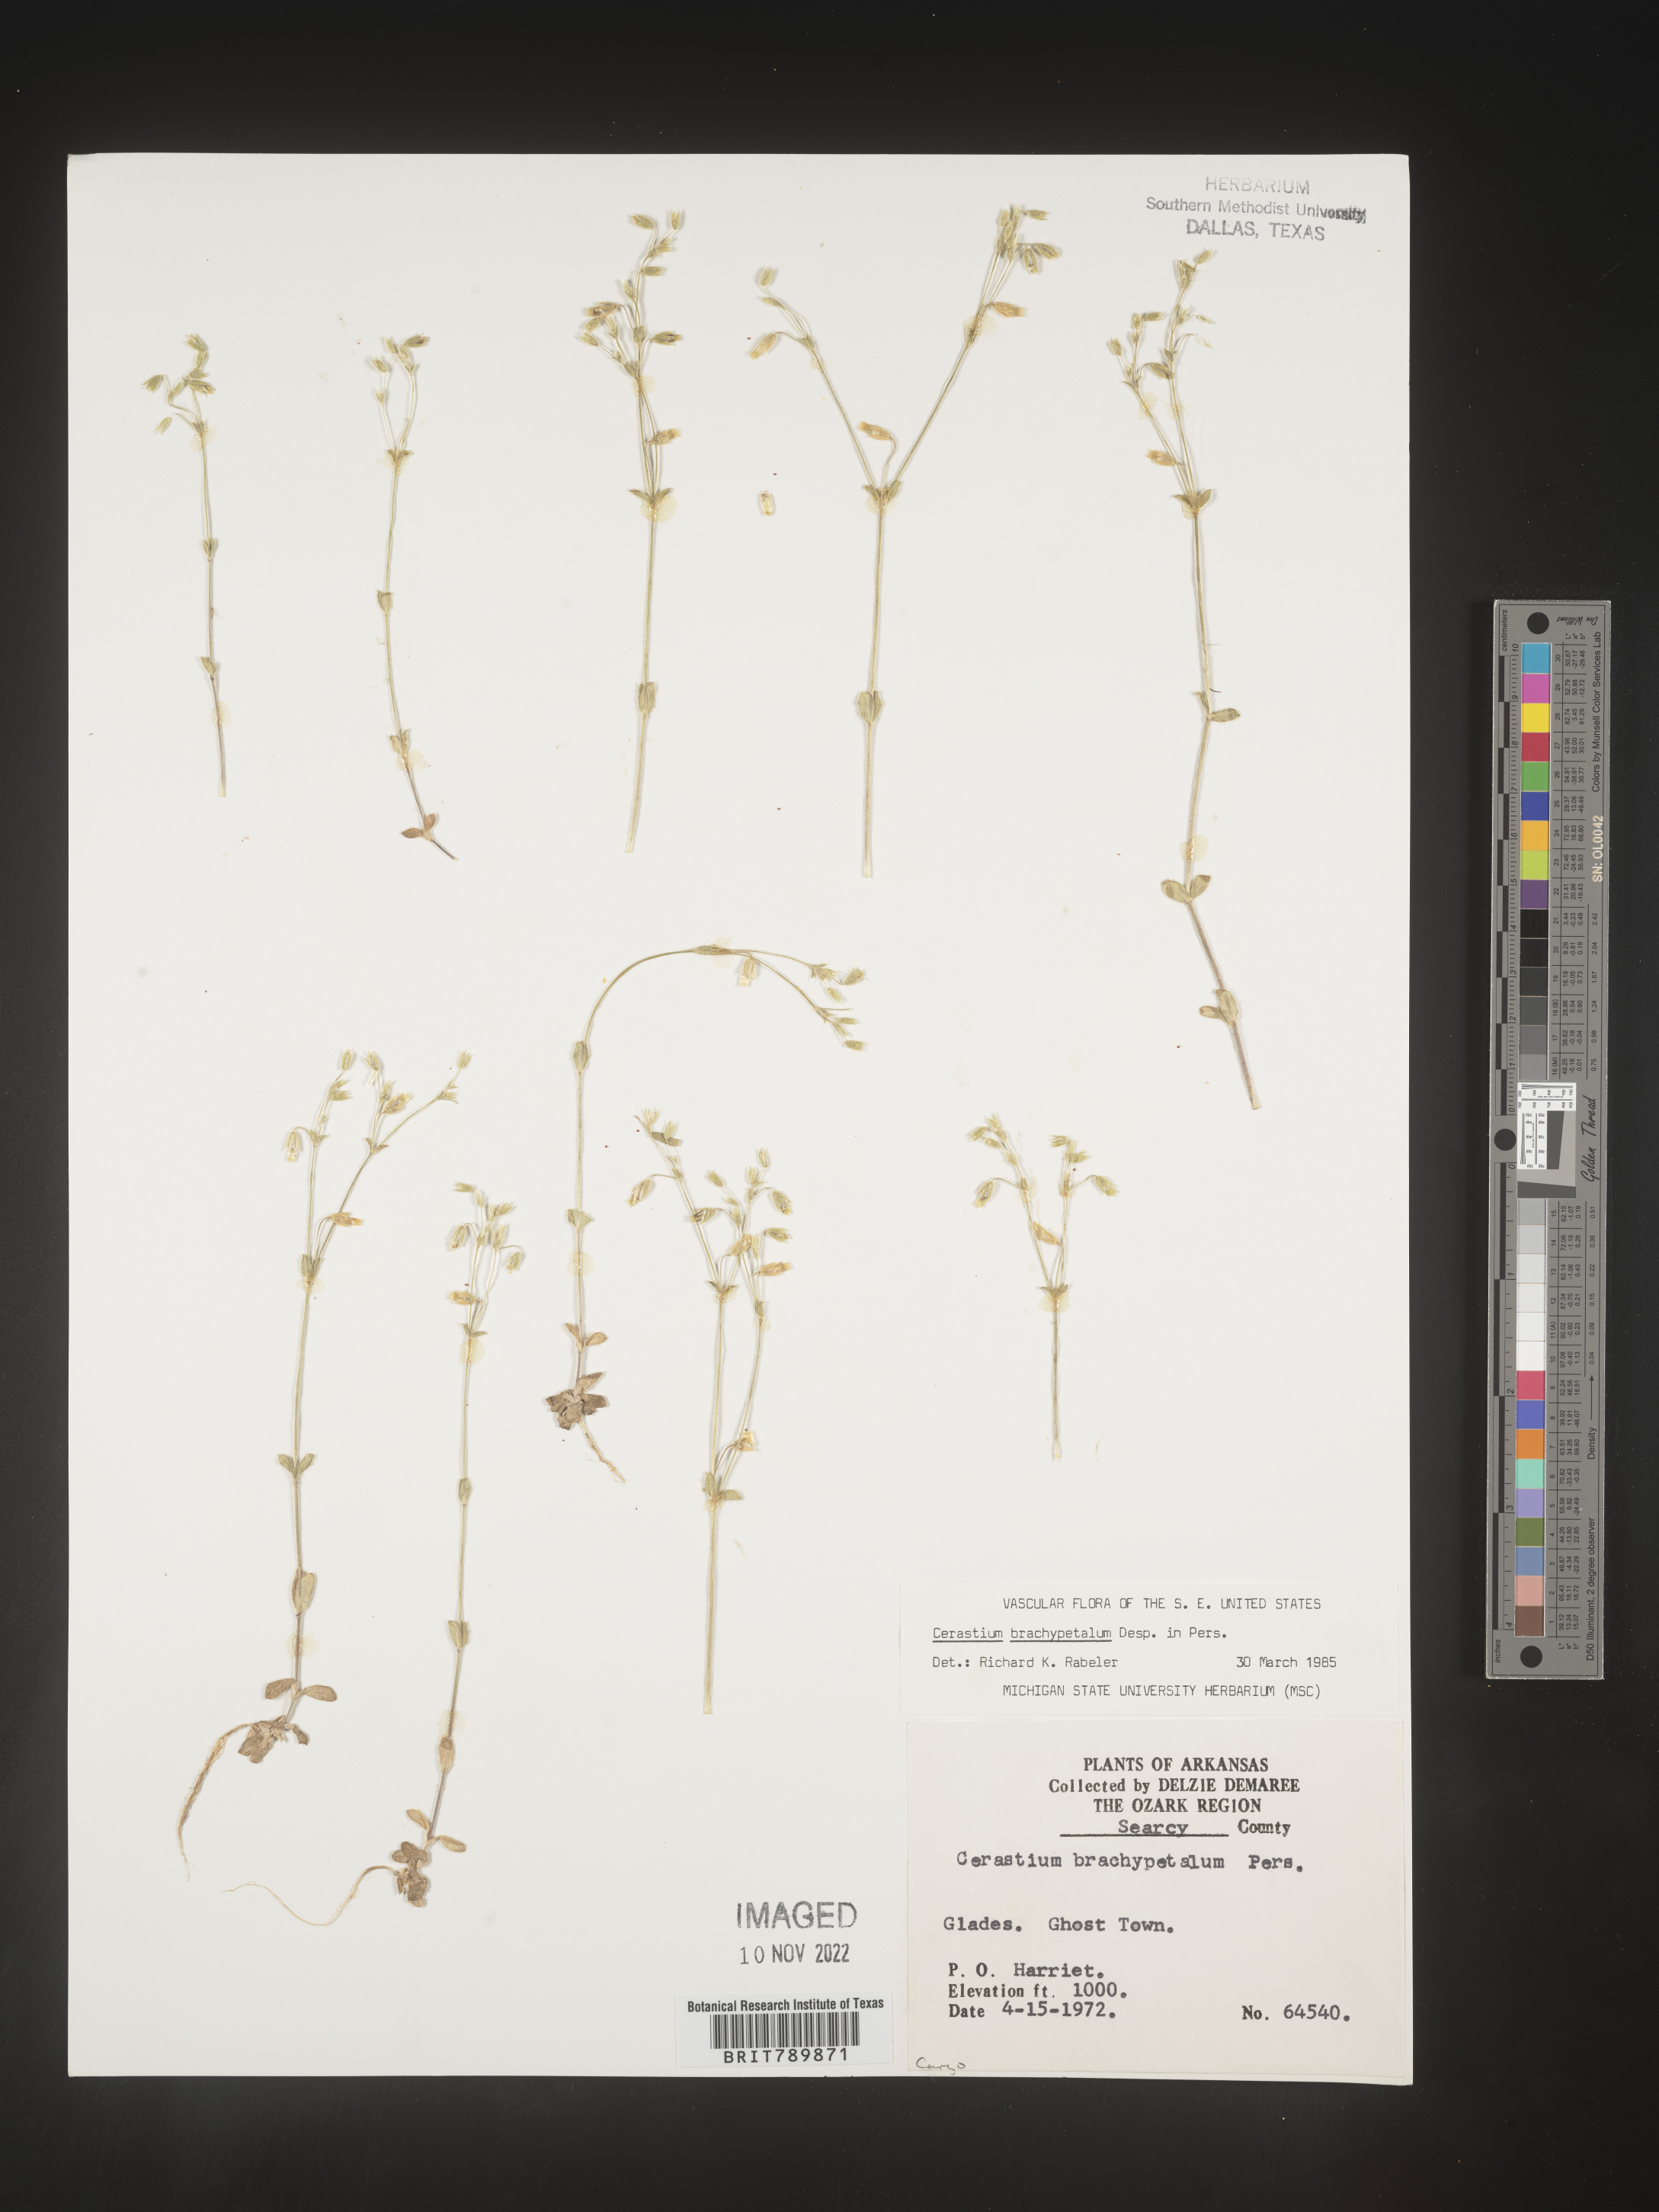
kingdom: Plantae
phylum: Tracheophyta
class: Magnoliopsida
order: Caryophyllales
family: Caryophyllaceae
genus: Cerastium
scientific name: Cerastium brachypetalum
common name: Grey mouse-ear
